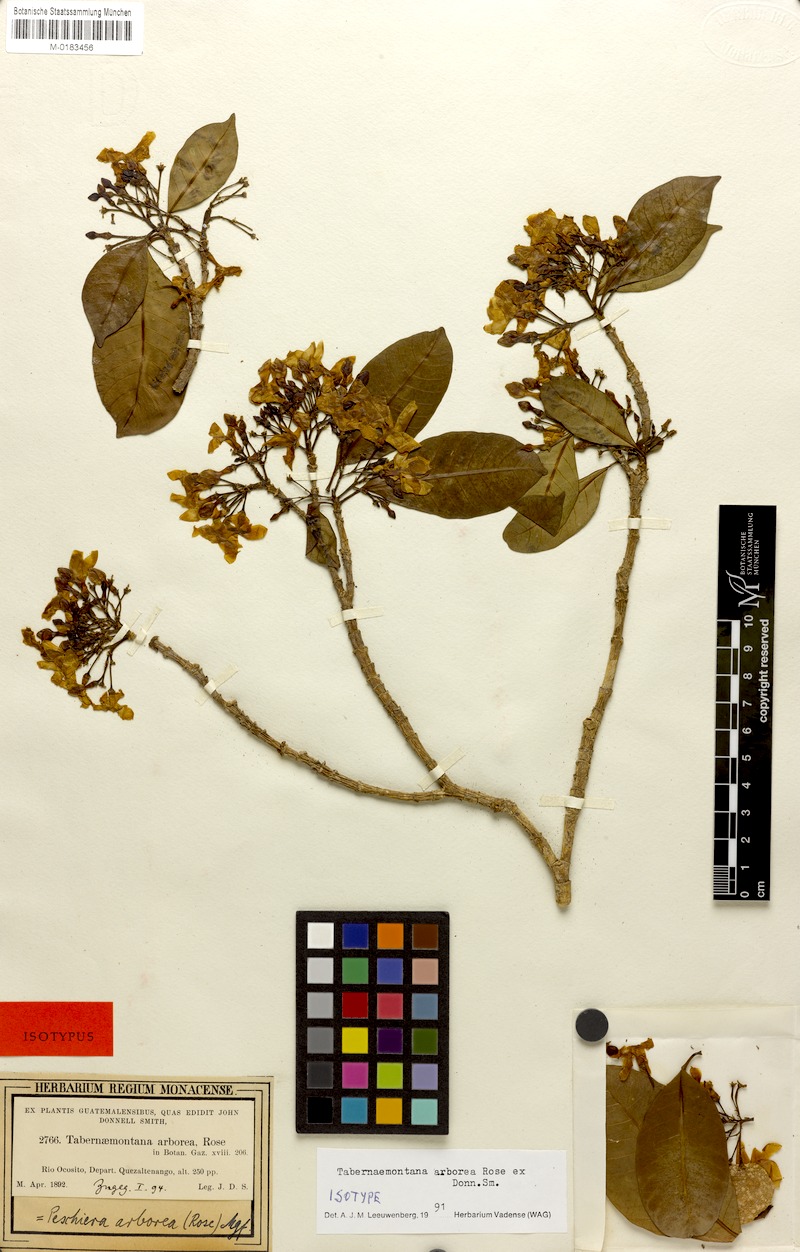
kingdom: Plantae
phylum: Tracheophyta
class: Magnoliopsida
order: Gentianales
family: Apocynaceae
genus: Tabernaemontana
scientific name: Tabernaemontana arborea
